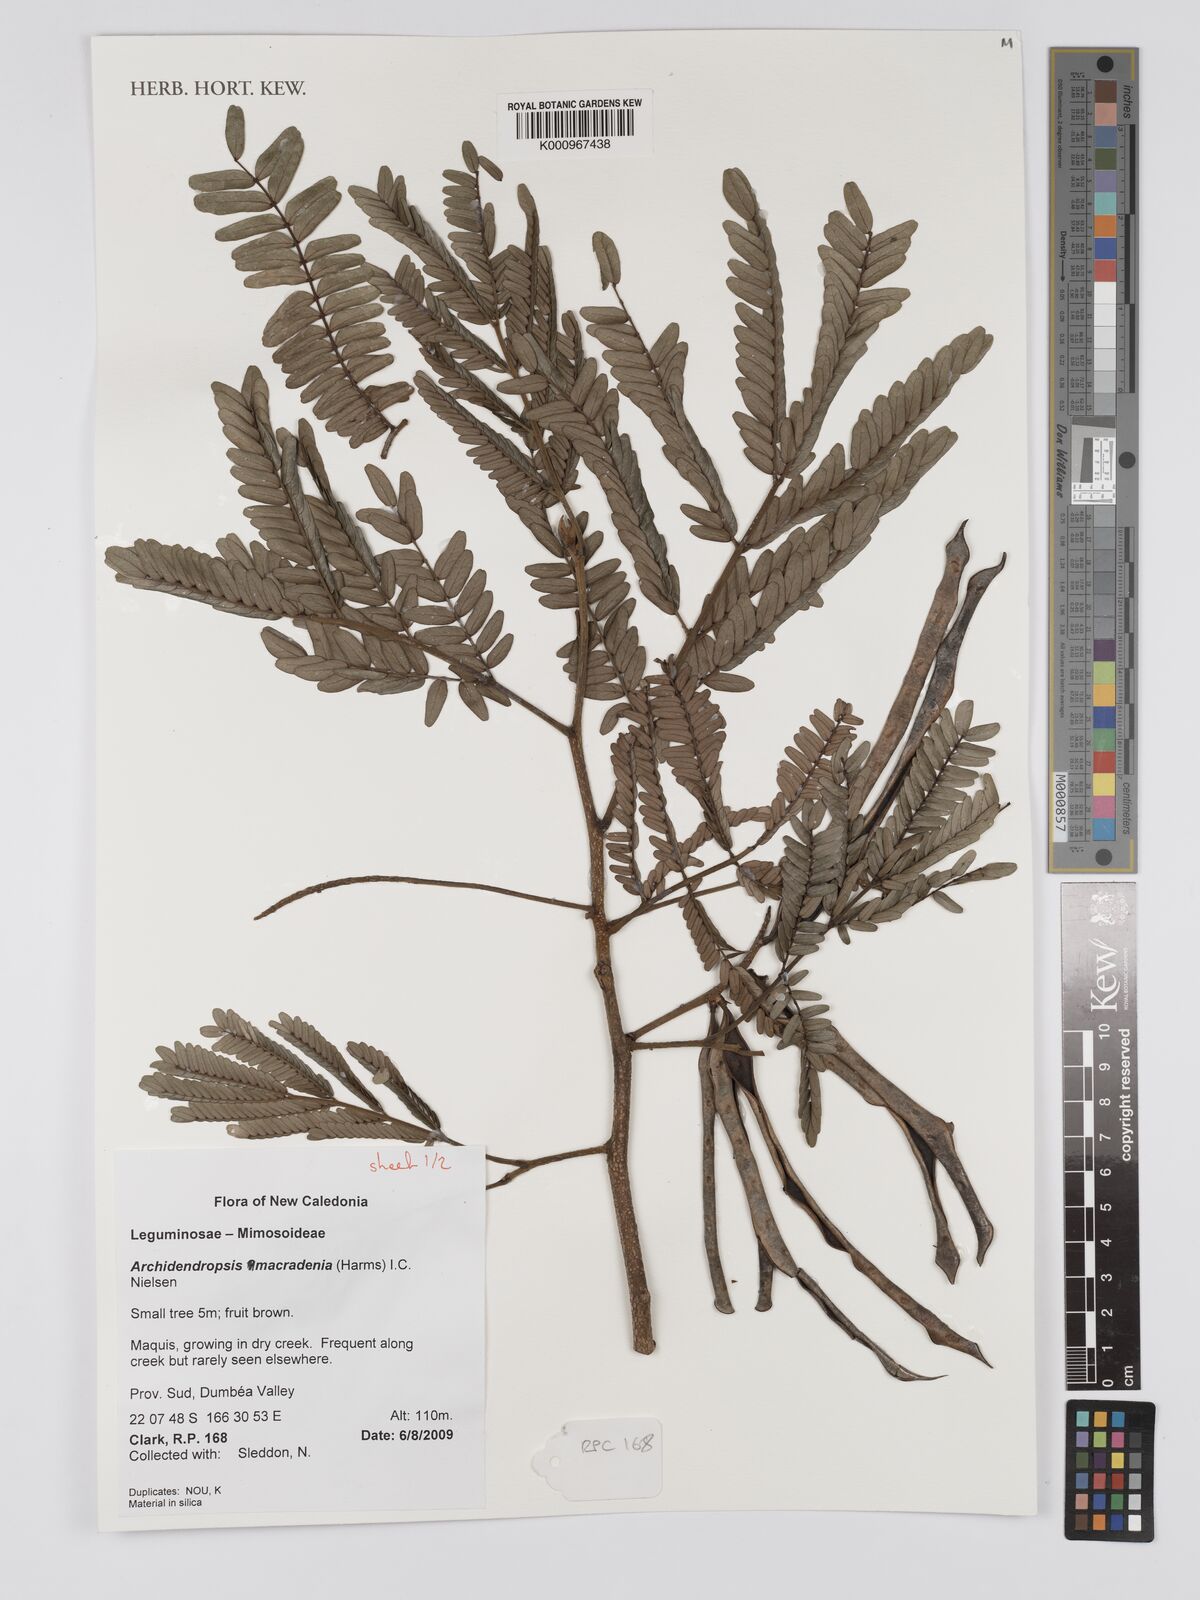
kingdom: Plantae
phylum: Tracheophyta
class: Magnoliopsida
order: Fabales
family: Fabaceae
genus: Archidendropsis
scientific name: Archidendropsis macradenia
